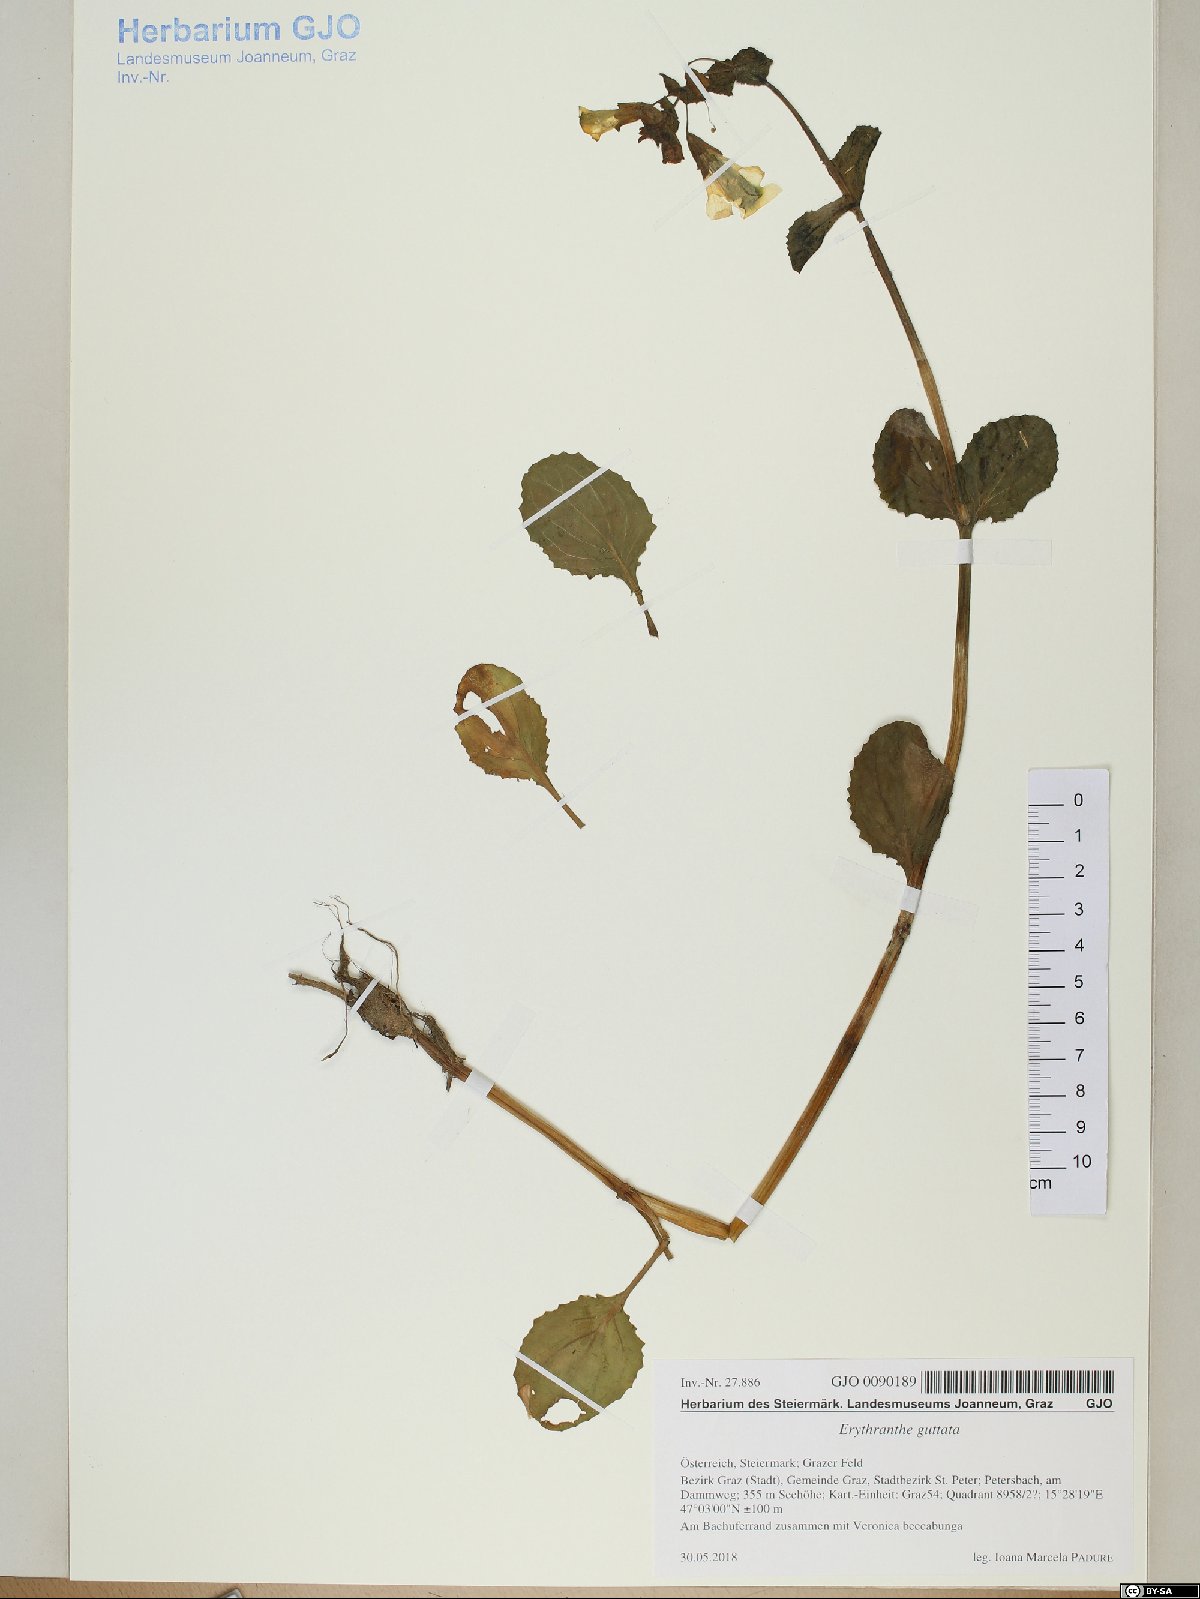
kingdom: Plantae
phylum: Tracheophyta
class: Magnoliopsida
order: Lamiales
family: Phrymaceae
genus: Erythranthe
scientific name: Erythranthe guttata
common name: Monkeyflower
